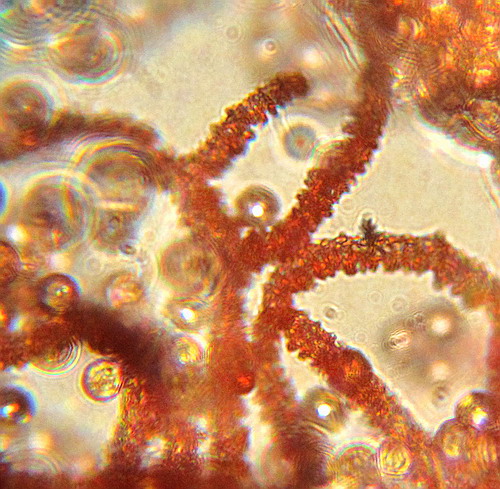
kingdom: Protozoa
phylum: Mycetozoa
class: Myxomycetes
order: Trichiales
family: Arcyriaceae
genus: Arcyria
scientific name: Arcyria incarnata
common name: rosa skålsvøb
